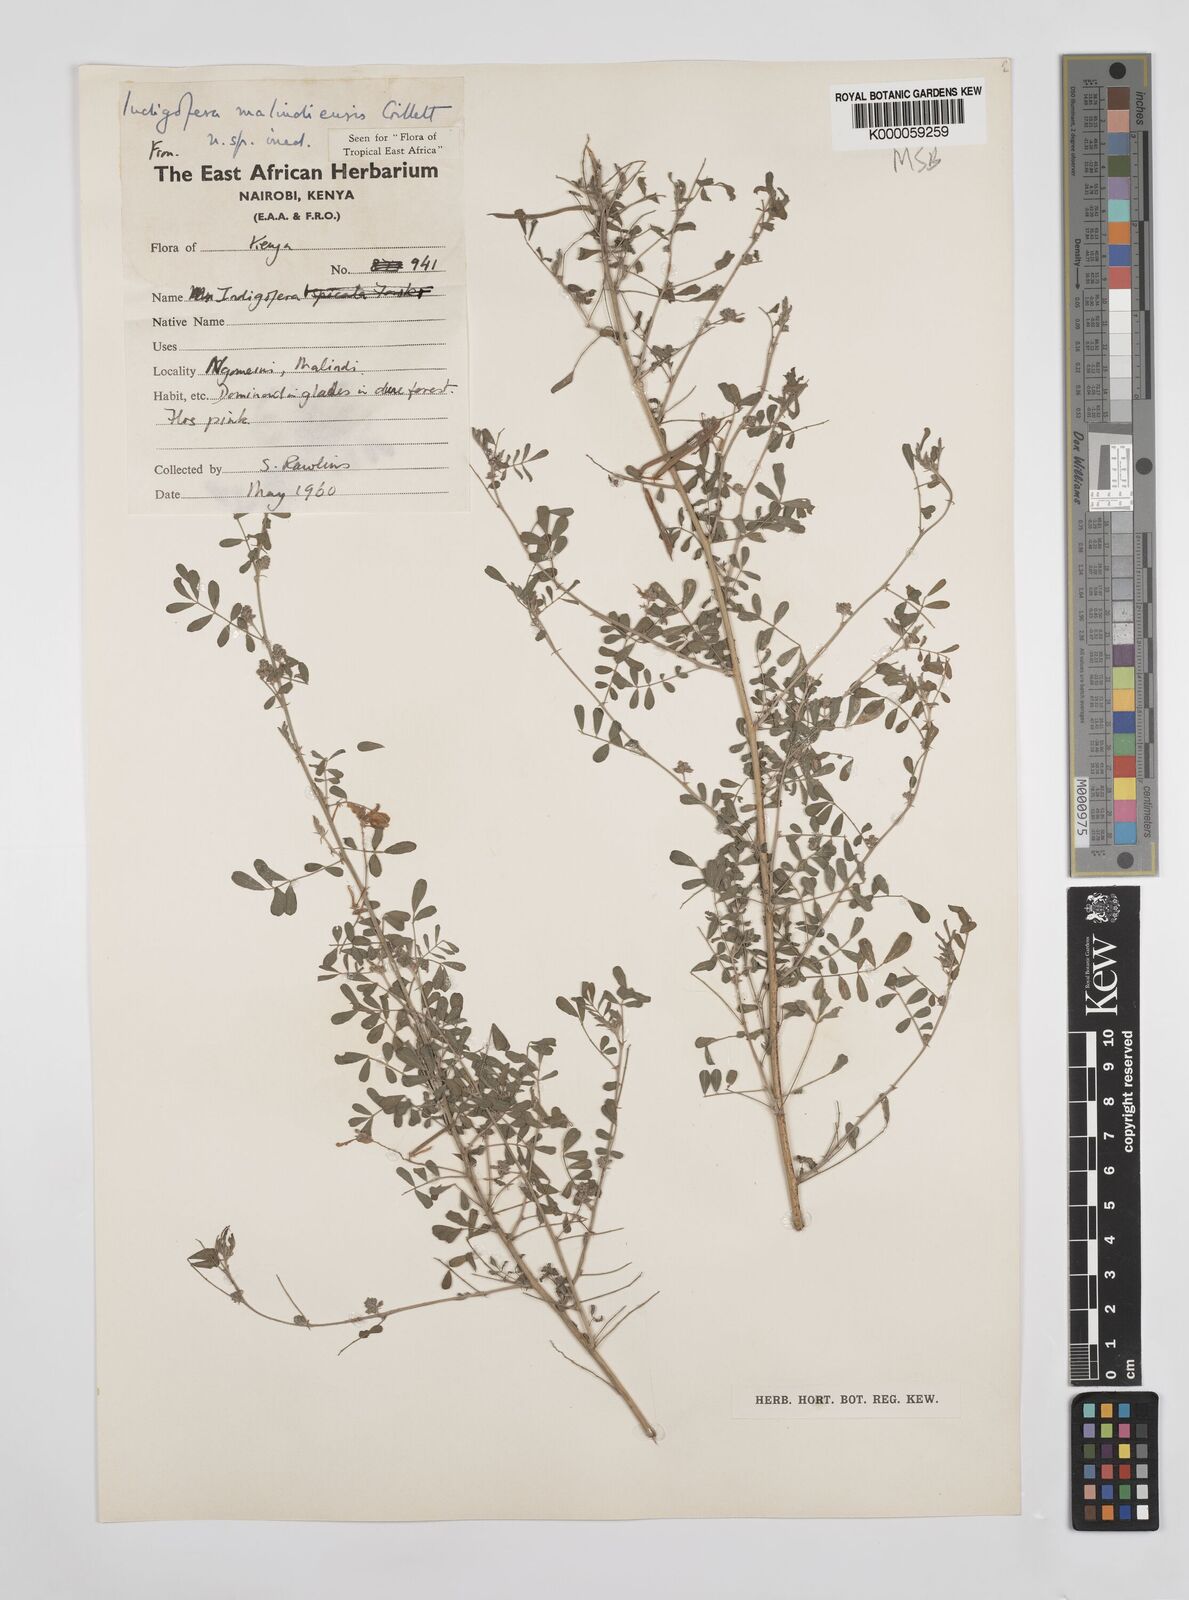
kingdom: Plantae
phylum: Tracheophyta
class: Magnoliopsida
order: Fabales
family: Fabaceae
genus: Indigofera
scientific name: Indigofera malindiensis
